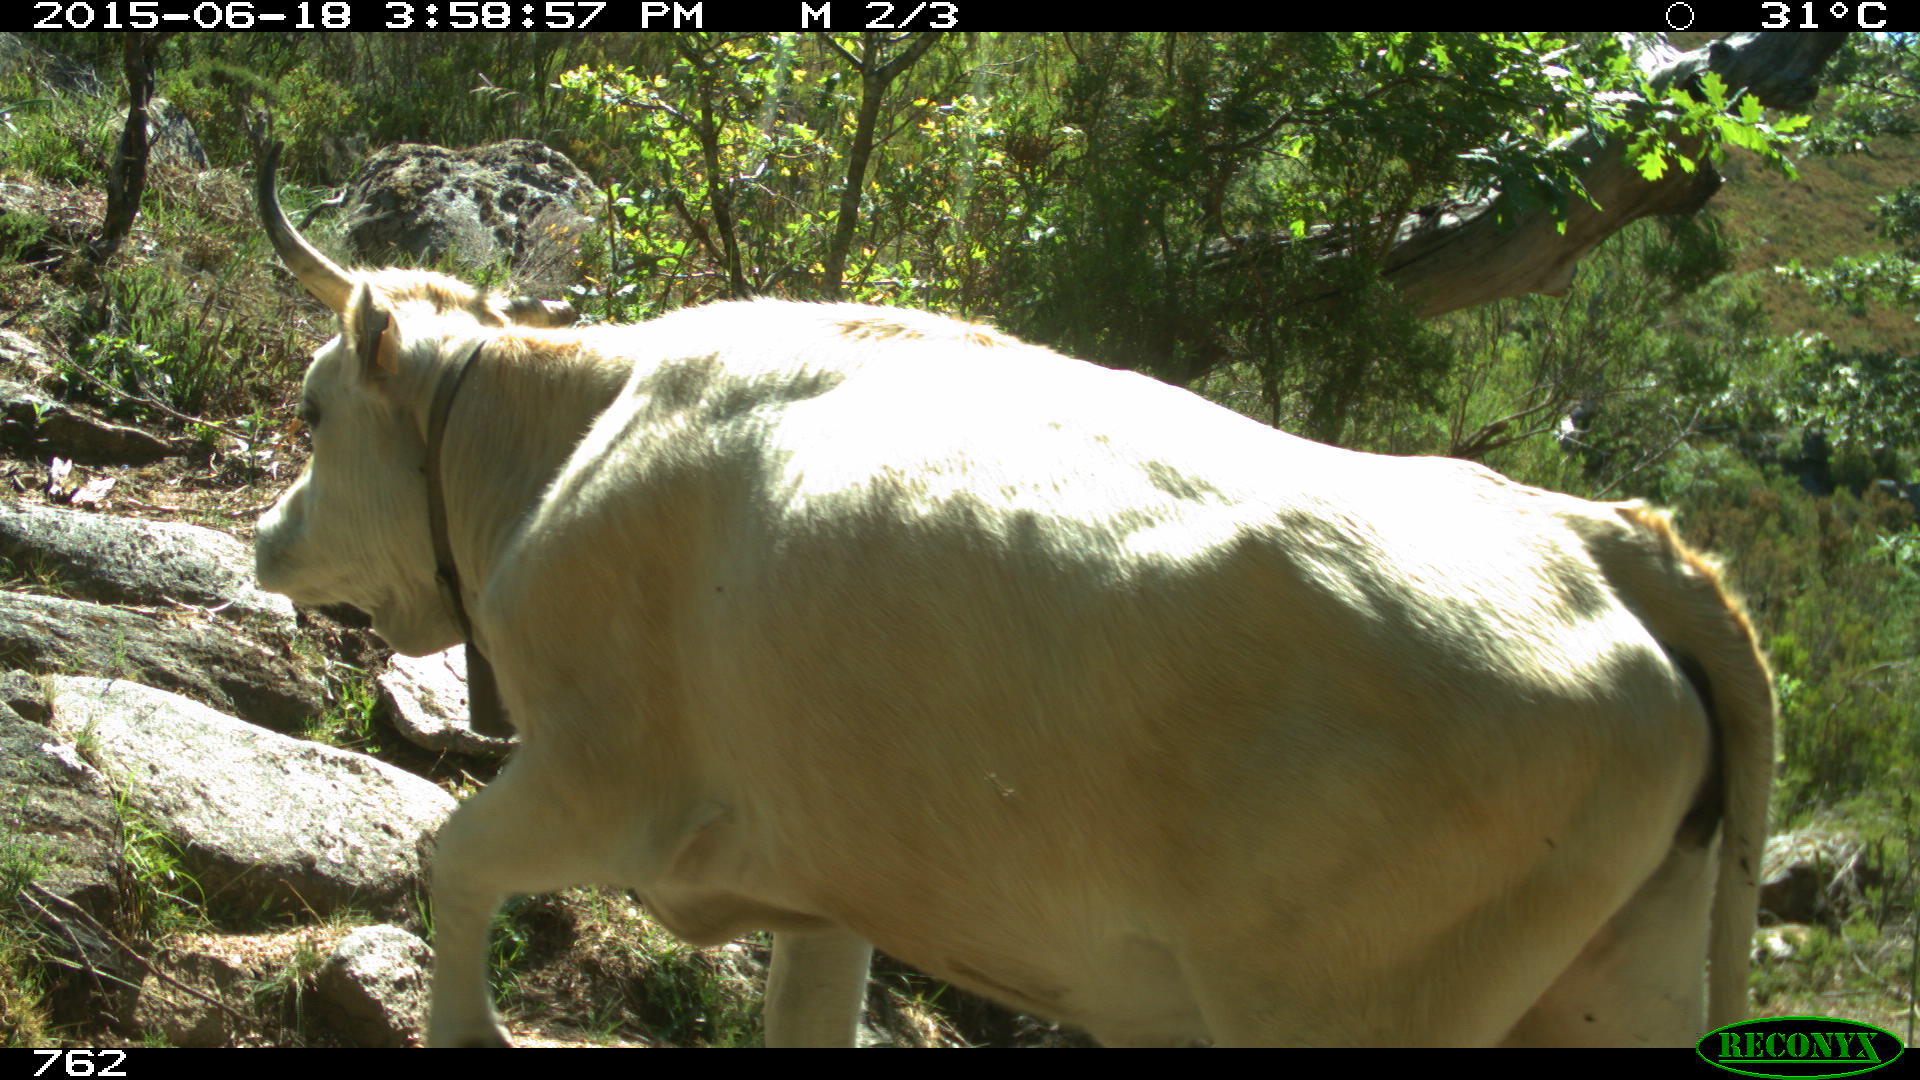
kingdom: Animalia
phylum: Chordata
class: Mammalia
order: Artiodactyla
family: Bovidae
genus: Bos
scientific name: Bos taurus
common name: Domesticated cattle
